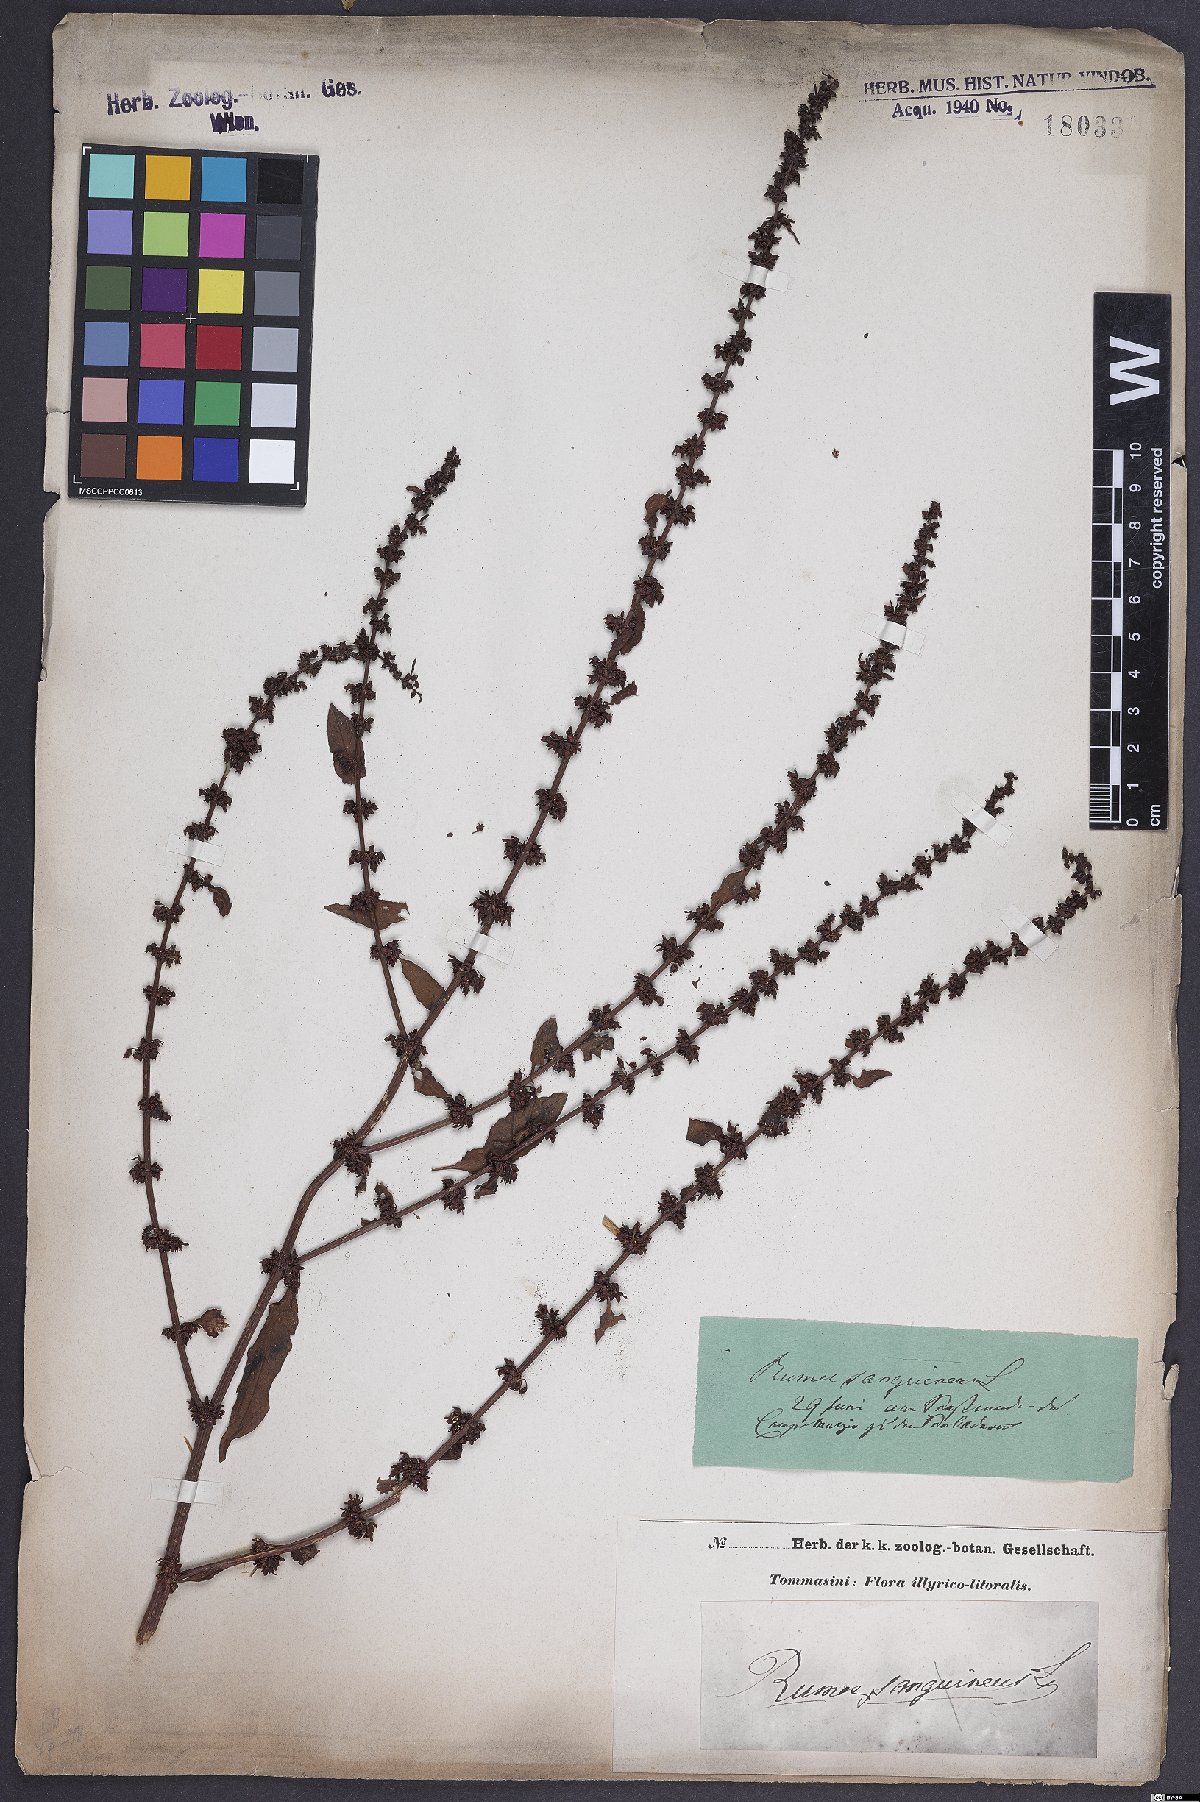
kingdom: Plantae
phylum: Tracheophyta
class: Magnoliopsida
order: Caryophyllales
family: Polygonaceae
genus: Rumex
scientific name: Rumex sanguineus
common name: Wood dock
